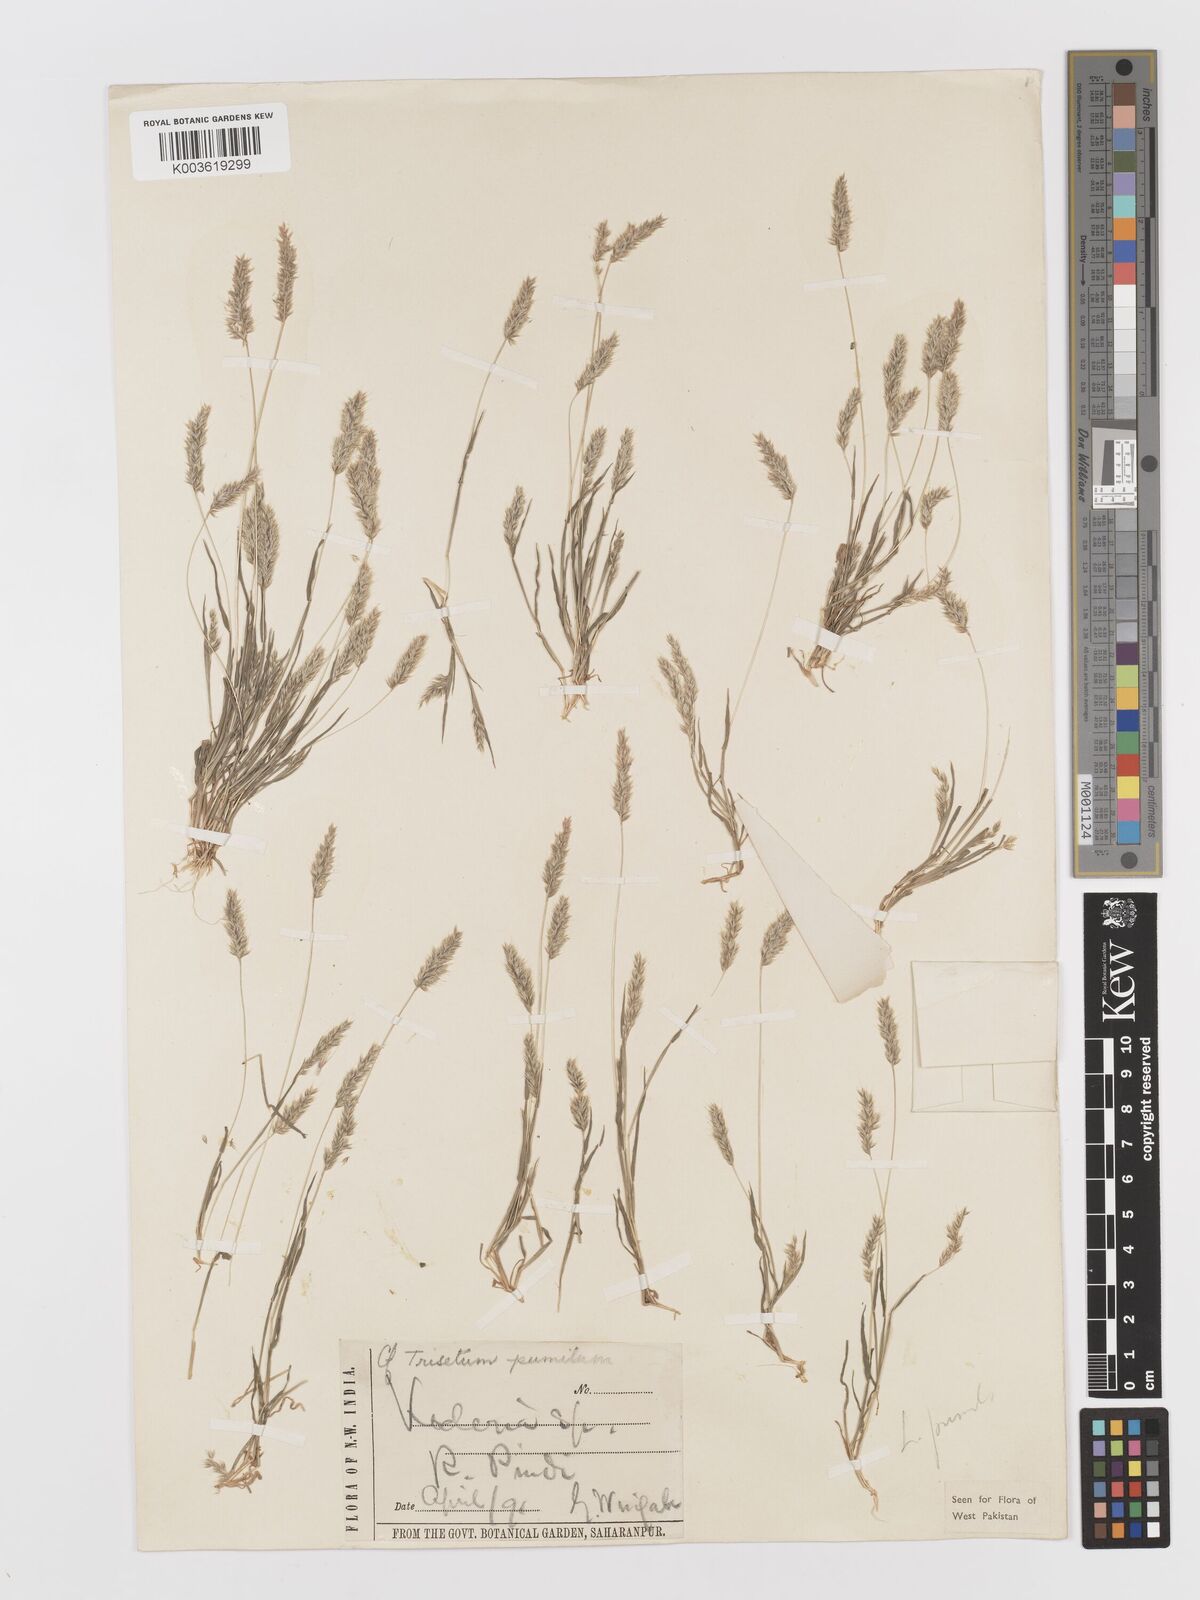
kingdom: Plantae
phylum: Tracheophyta
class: Liliopsida
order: Poales
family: Poaceae
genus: Rostraria
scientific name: Rostraria pumila
